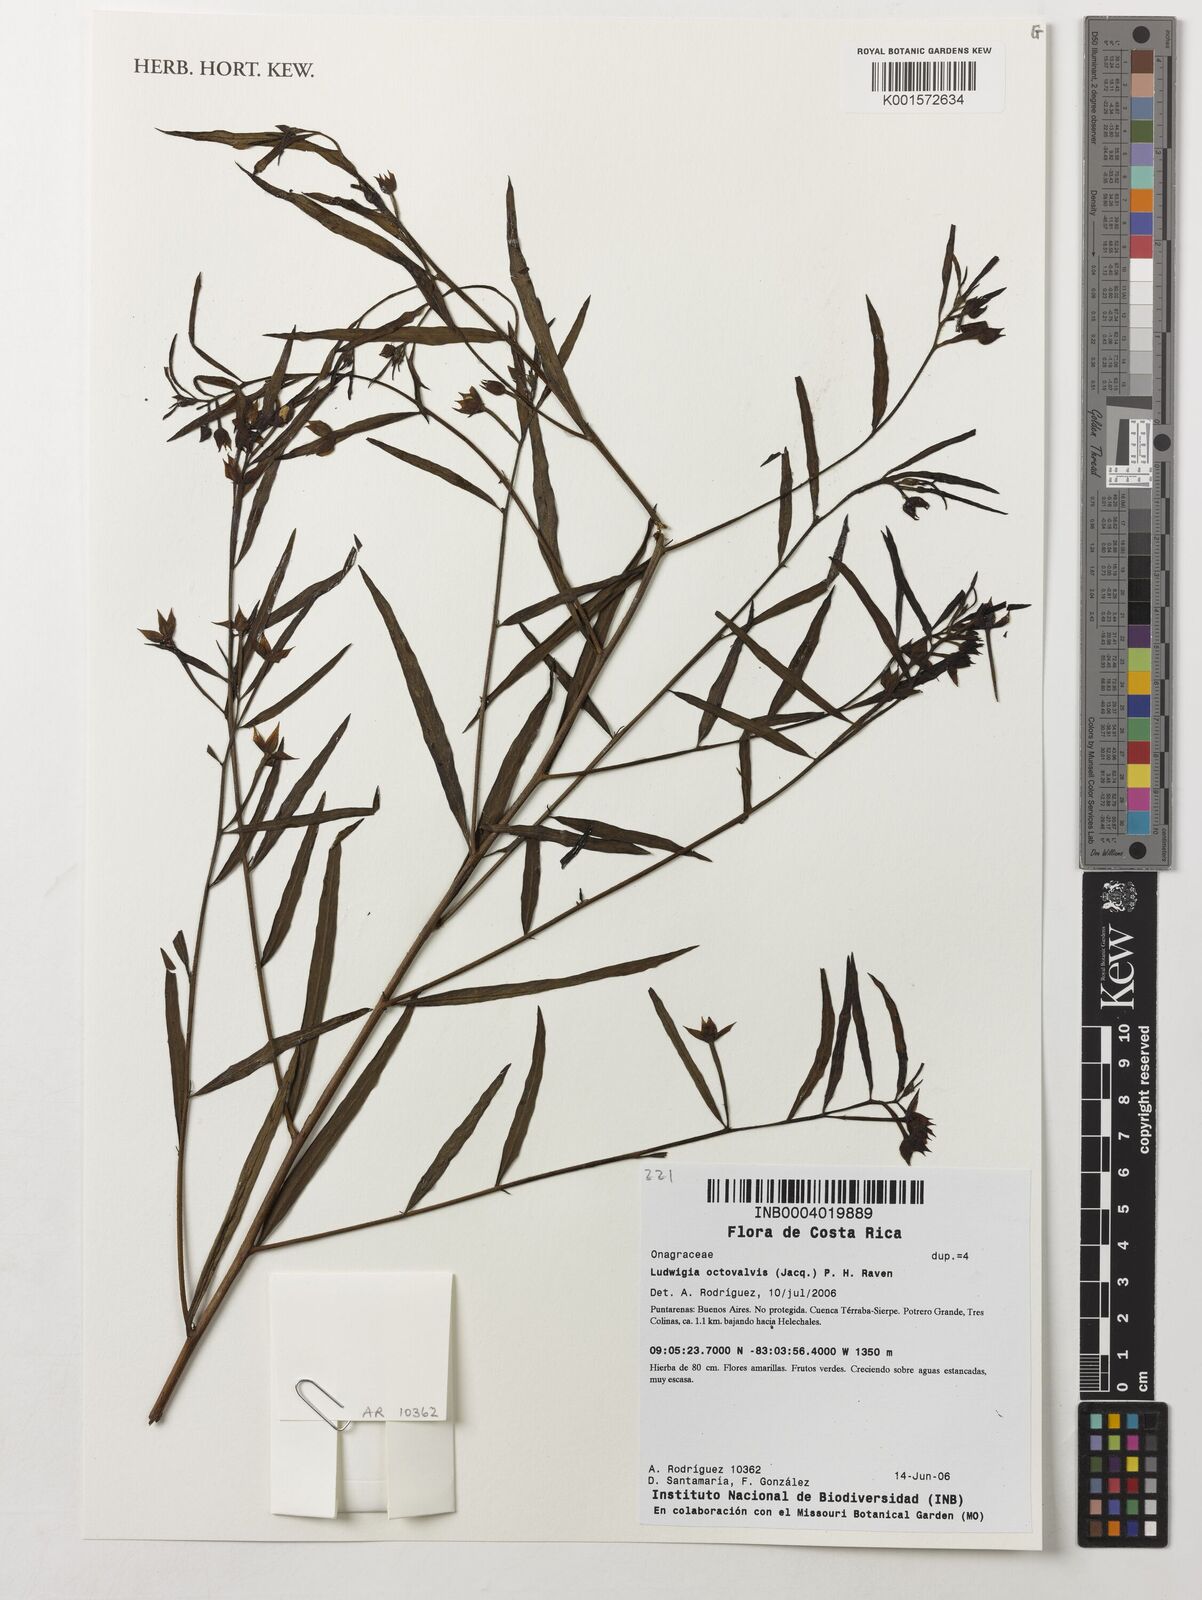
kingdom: Plantae
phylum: Tracheophyta
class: Magnoliopsida
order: Myrtales
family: Onagraceae
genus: Ludwigia
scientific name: Ludwigia octovalvis
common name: Water-primrose
